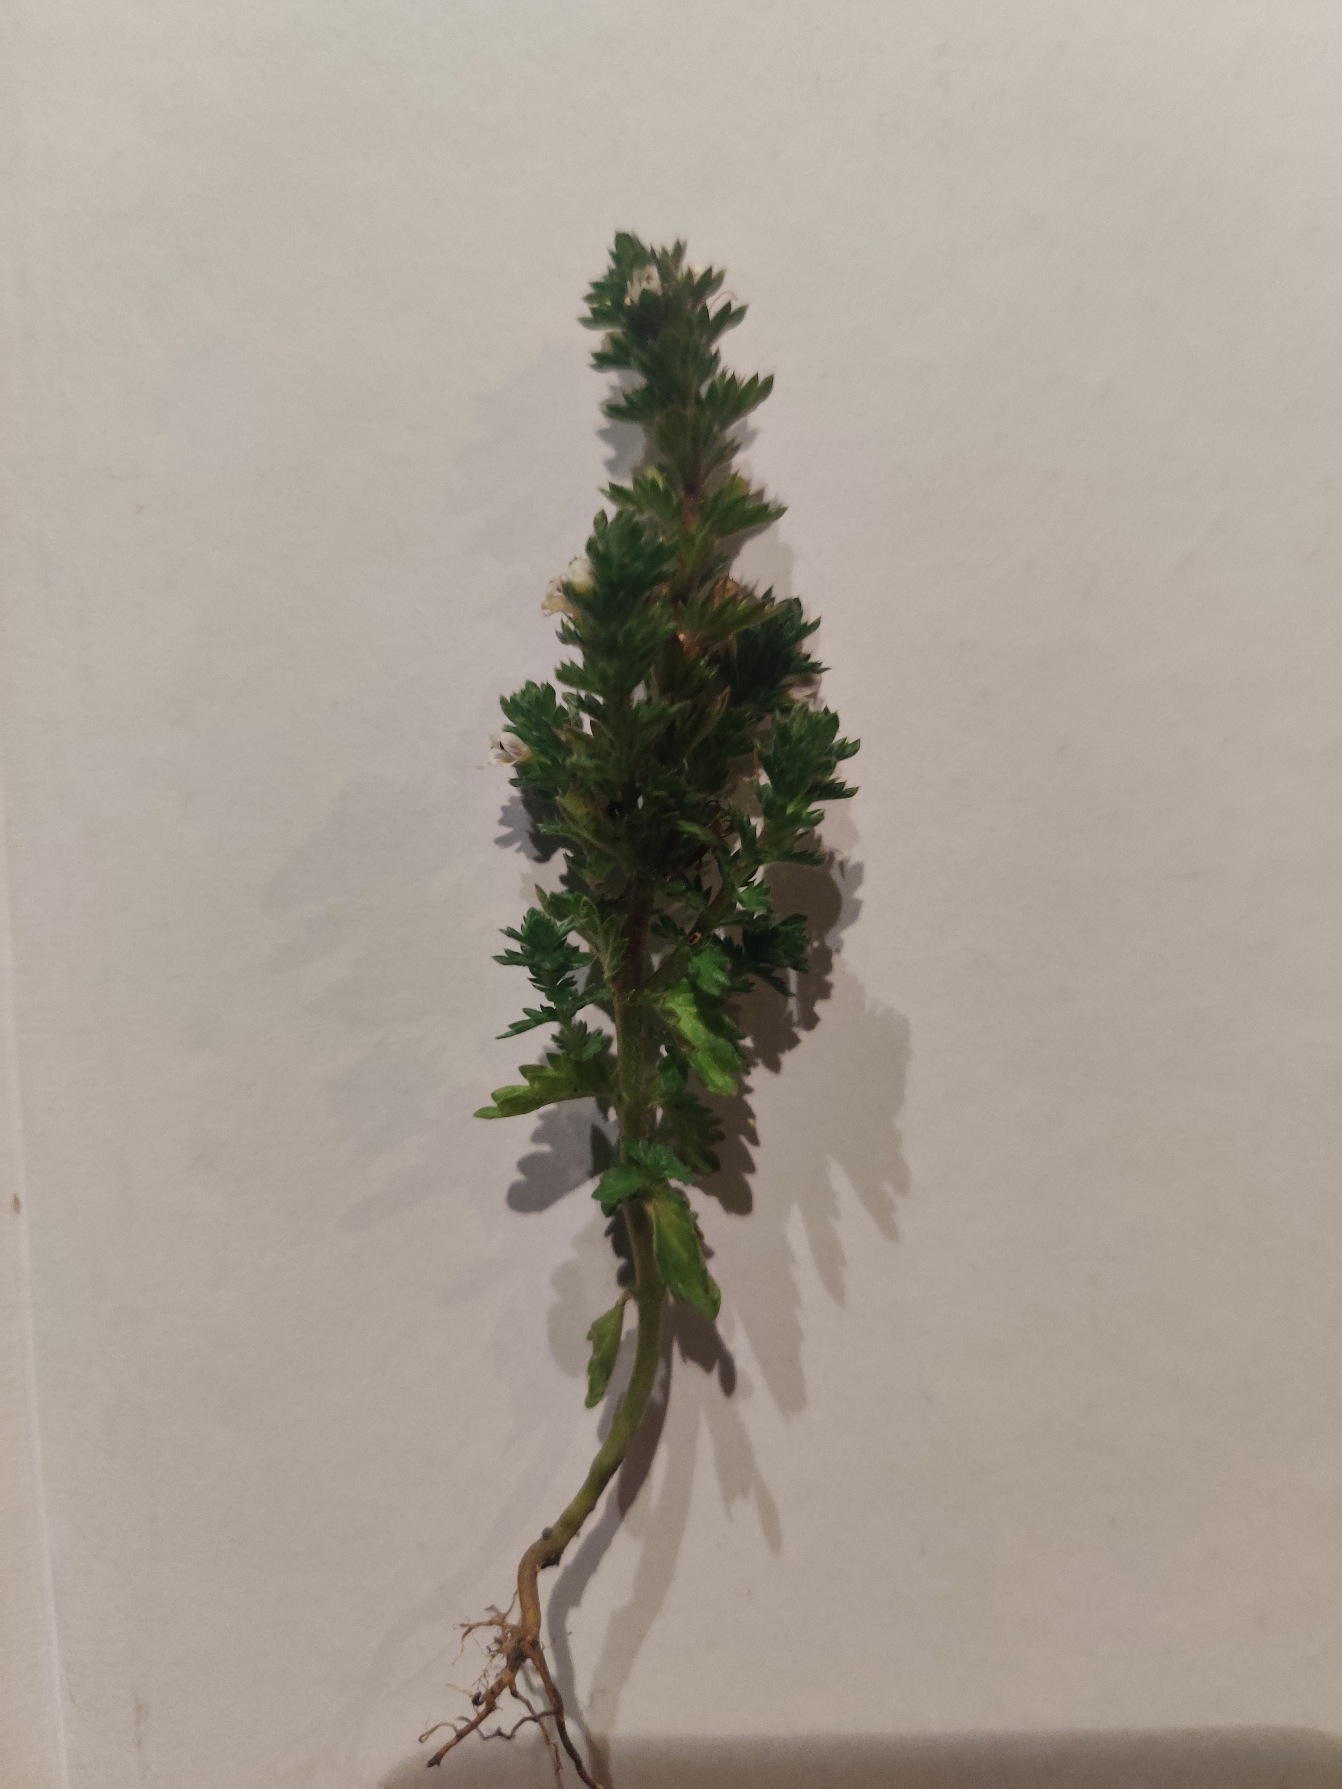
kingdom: Plantae
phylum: Tracheophyta
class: Magnoliopsida
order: Lamiales
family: Orobanchaceae
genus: Euphrasia
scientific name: Euphrasia stricta
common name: Spids øjentrøst
